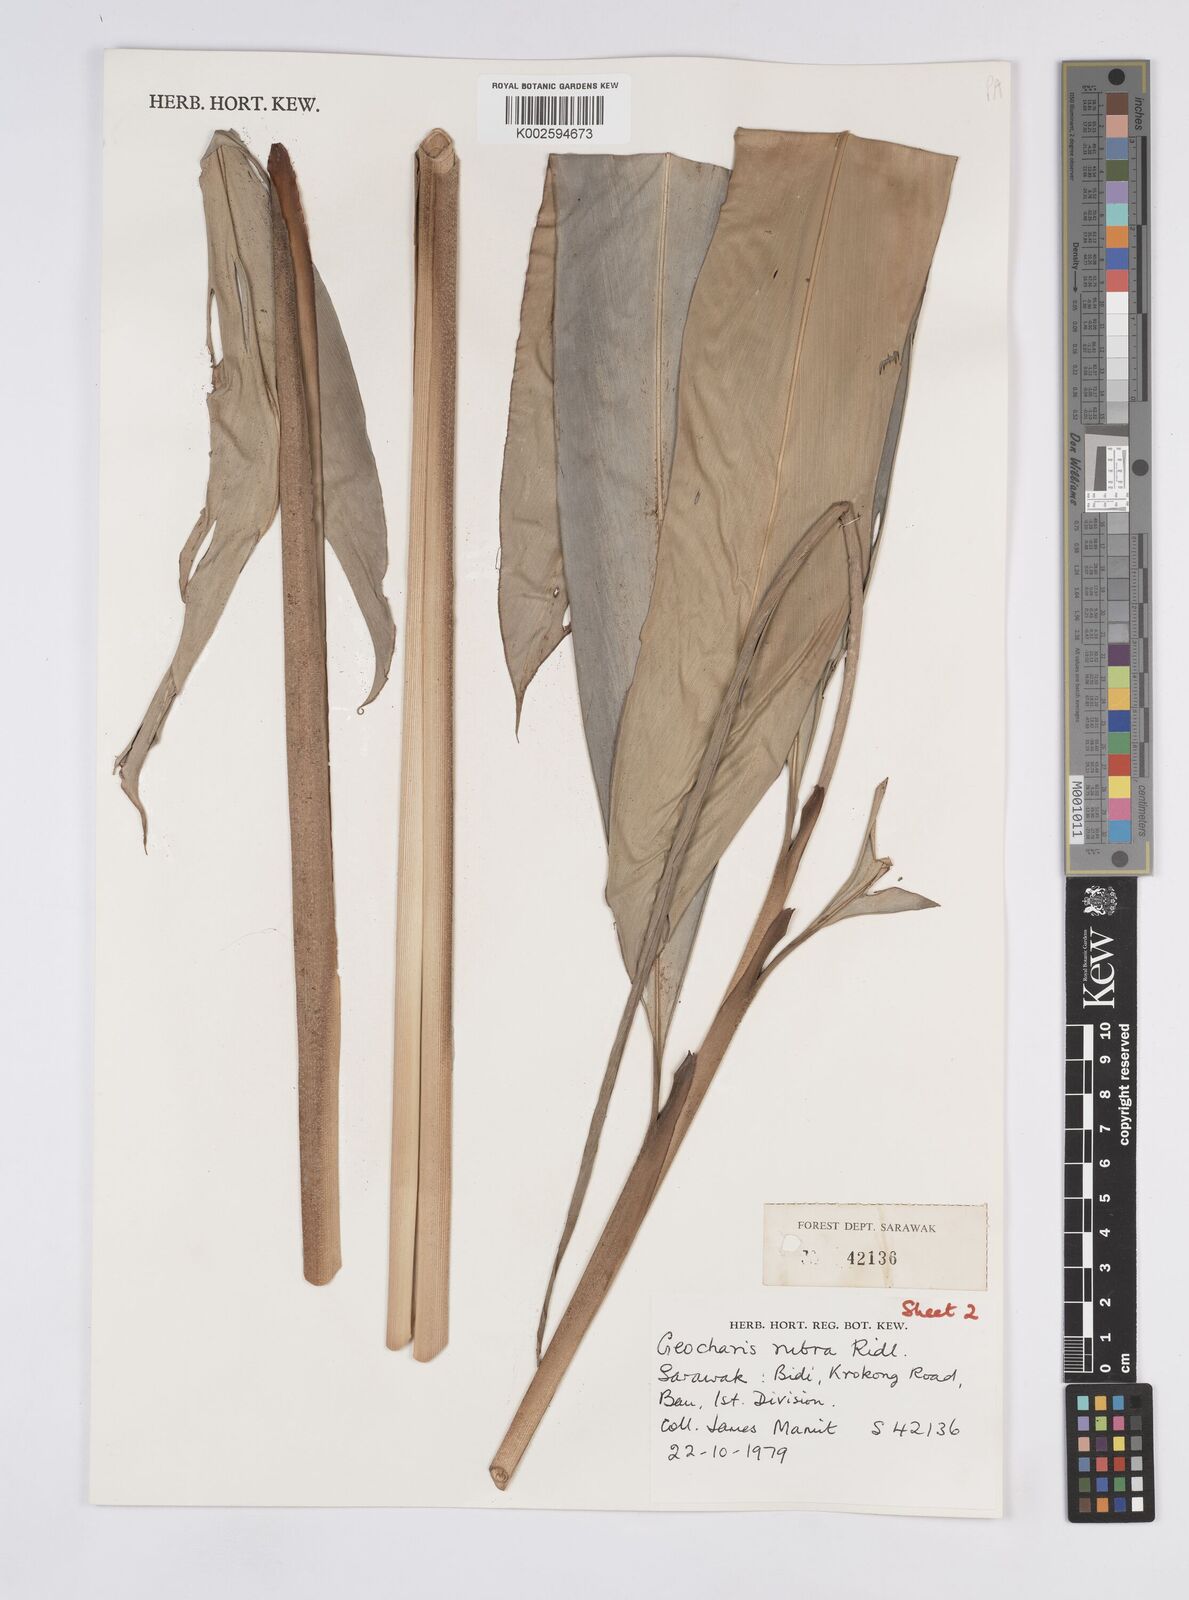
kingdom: Plantae
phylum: Tracheophyta
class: Liliopsida
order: Zingiberales
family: Zingiberaceae
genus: Geocharis
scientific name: Geocharis rubra
